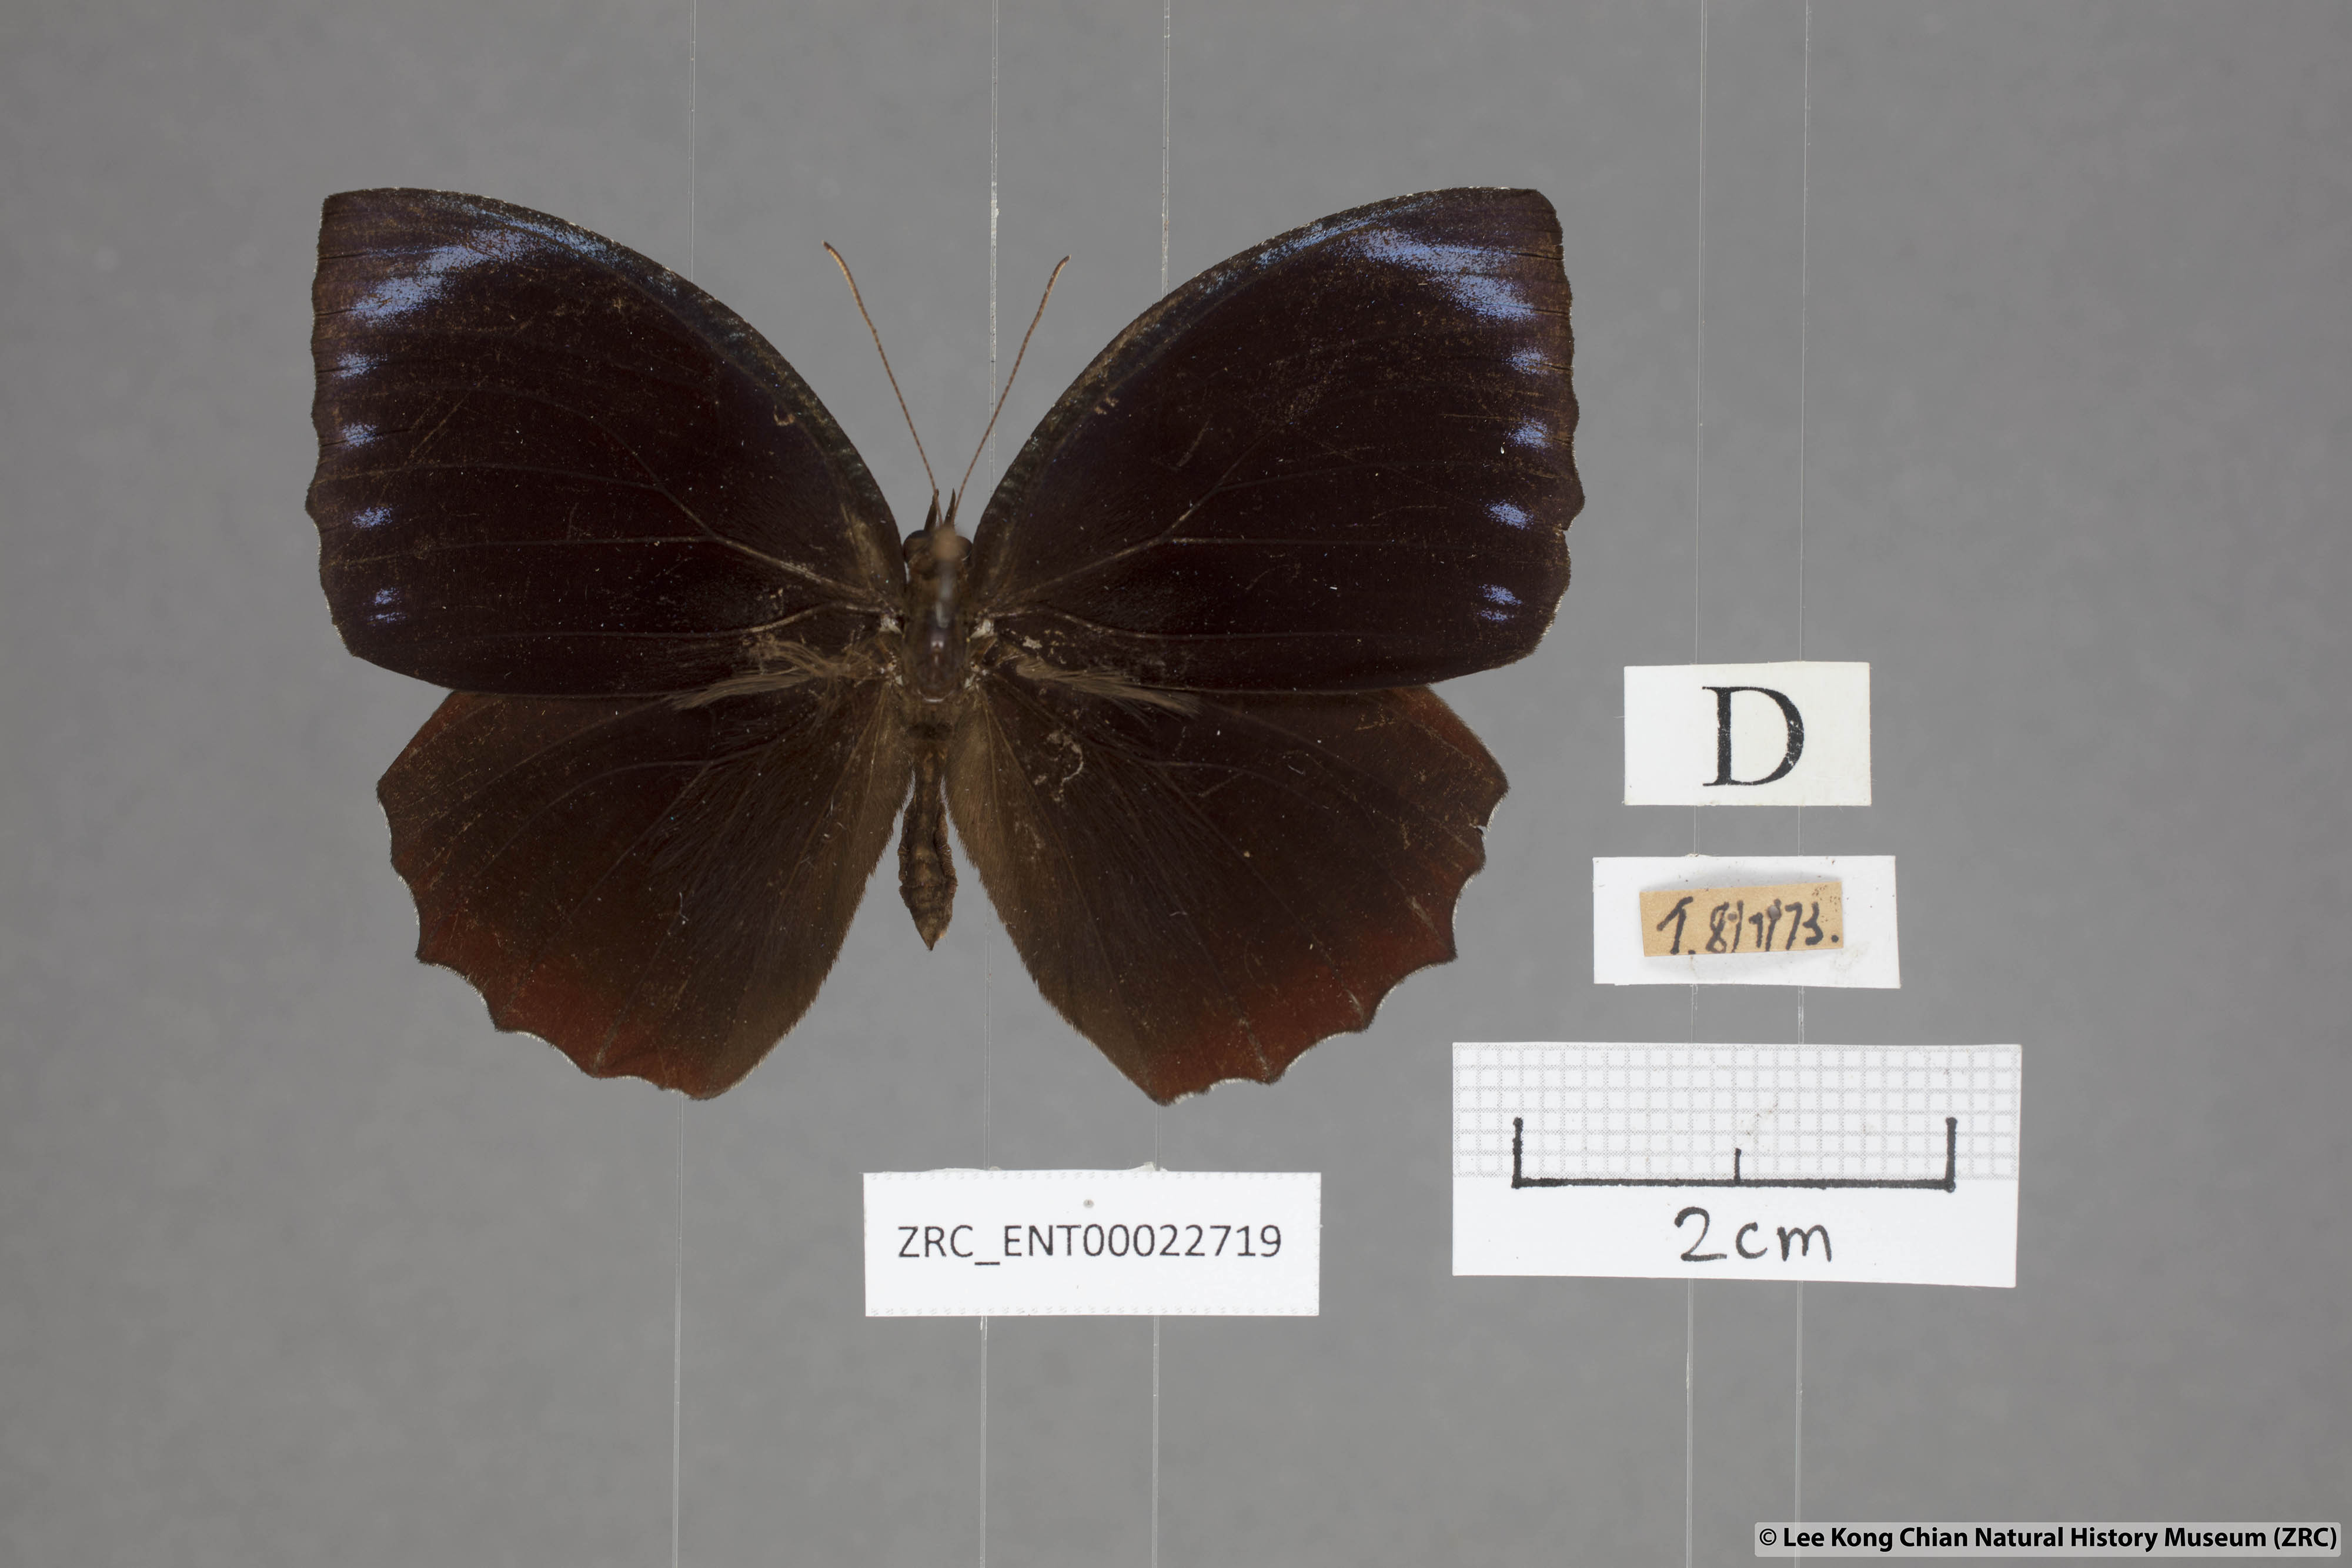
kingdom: Animalia
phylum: Arthropoda
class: Insecta
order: Lepidoptera
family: Nymphalidae
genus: Elymnias
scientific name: Elymnias hypermnestra
